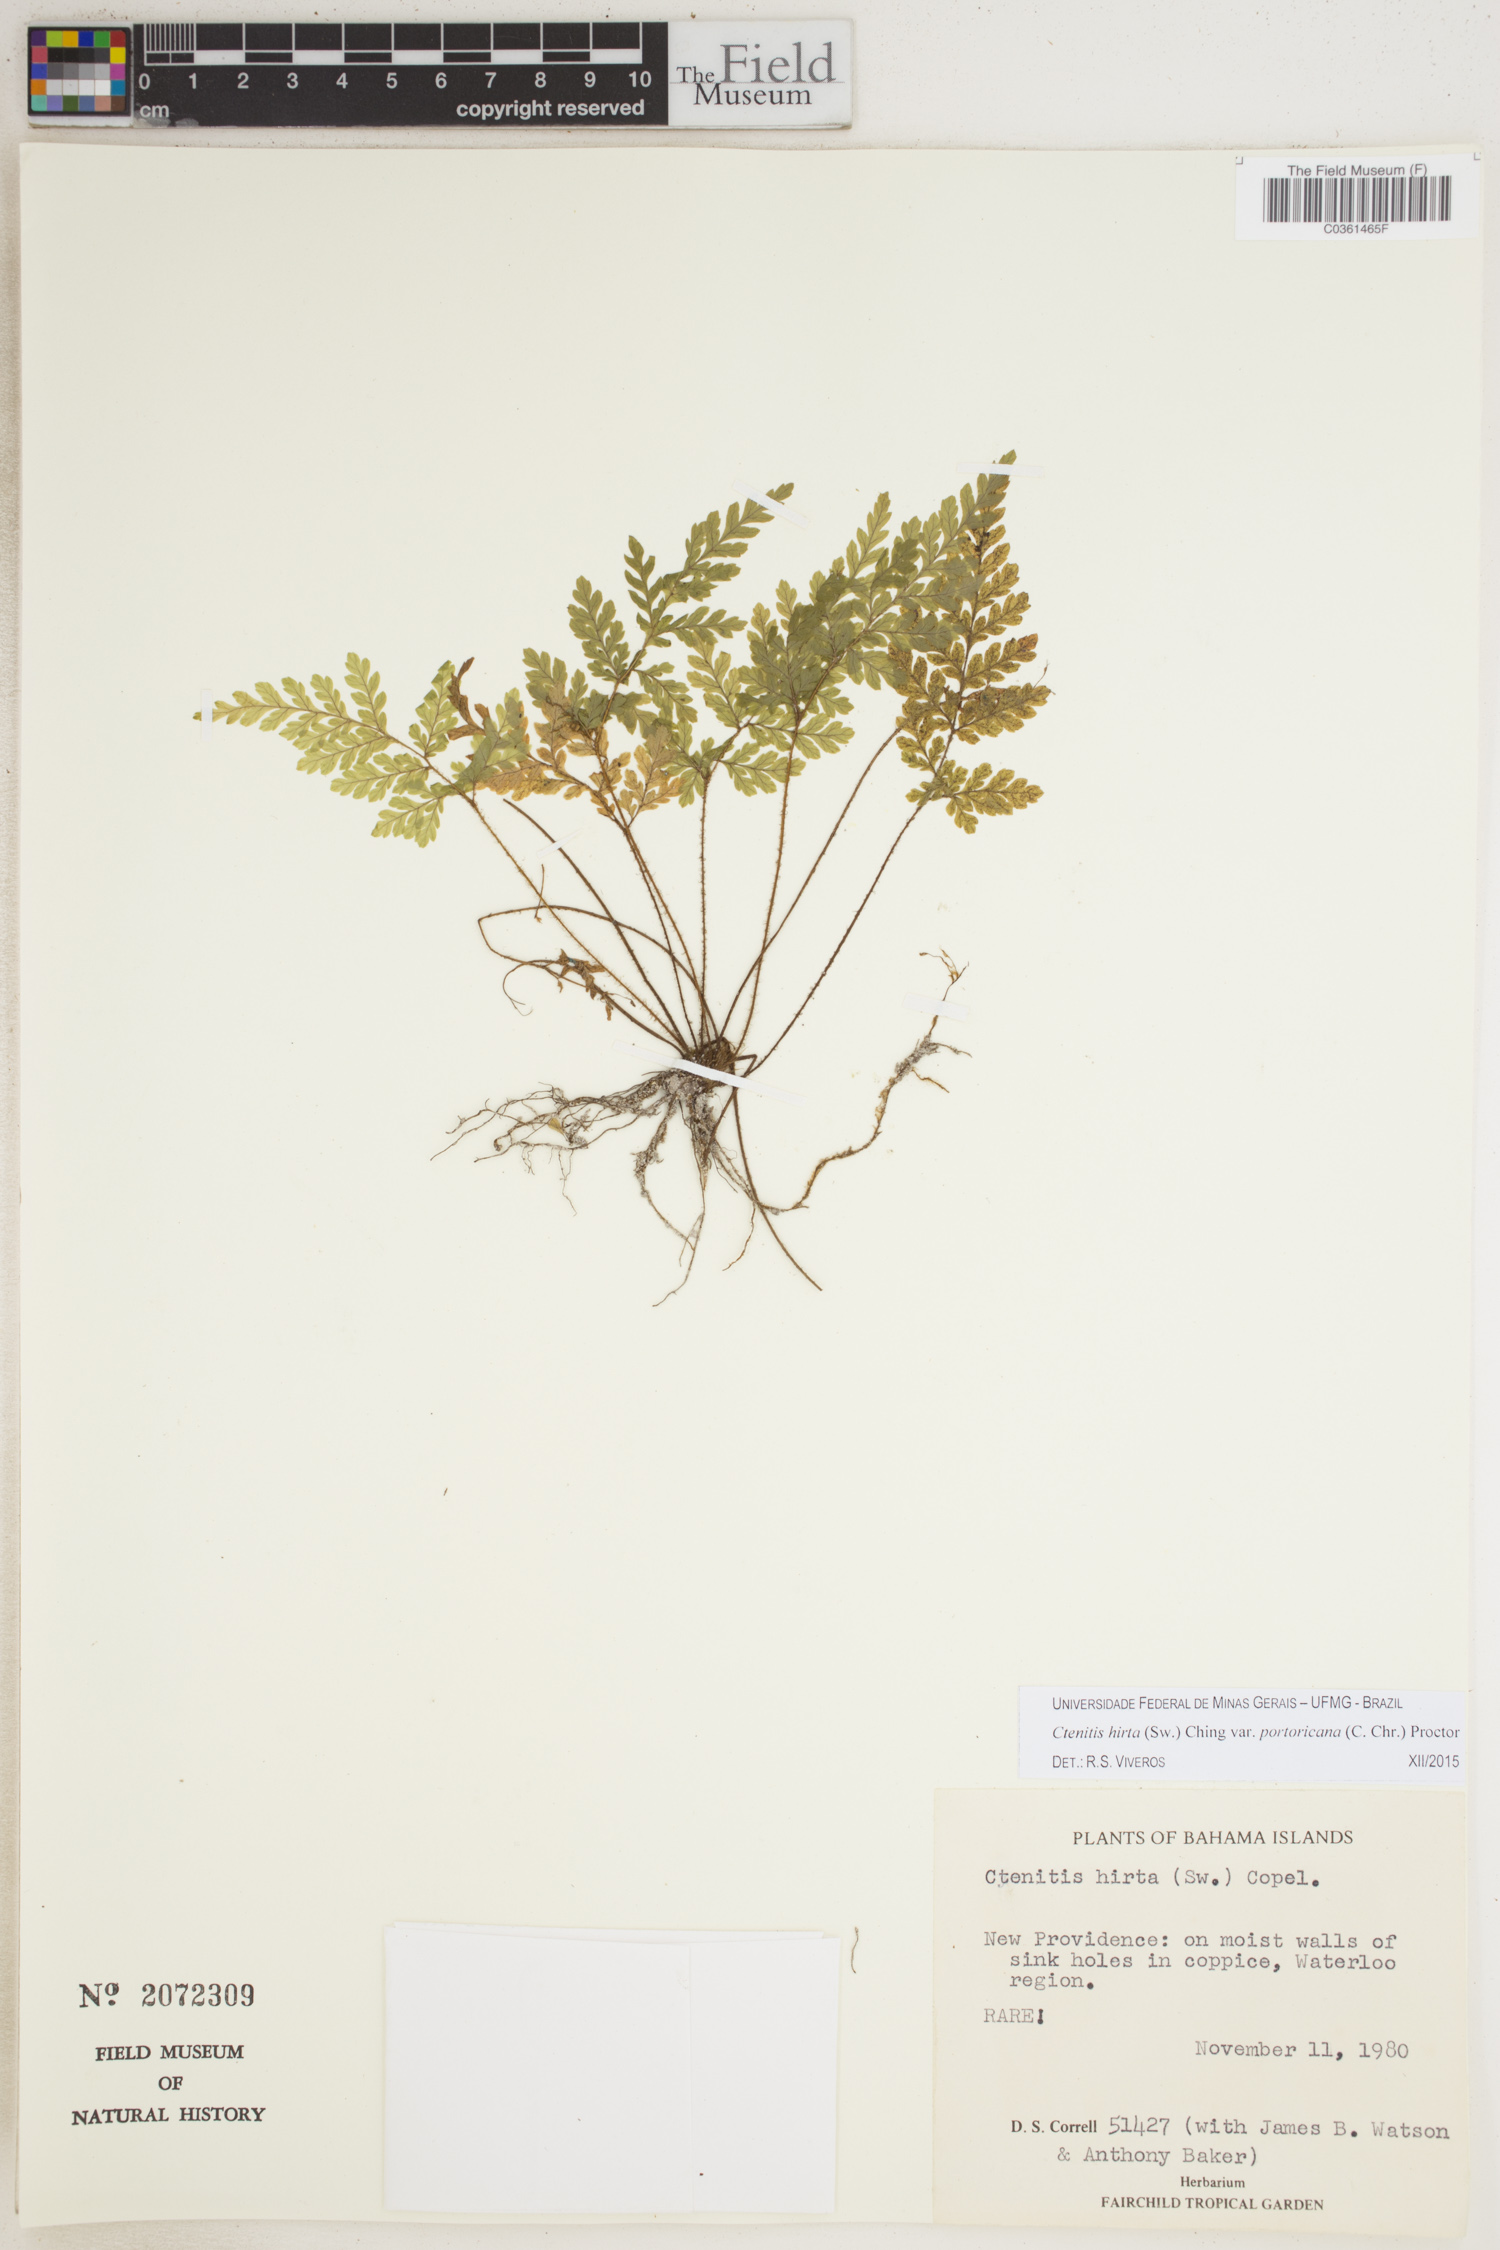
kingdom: Plantae
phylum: Tracheophyta
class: Polypodiopsida
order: Polypodiales
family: Dryopteridaceae
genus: Ctenitis
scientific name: Ctenitis hirta
